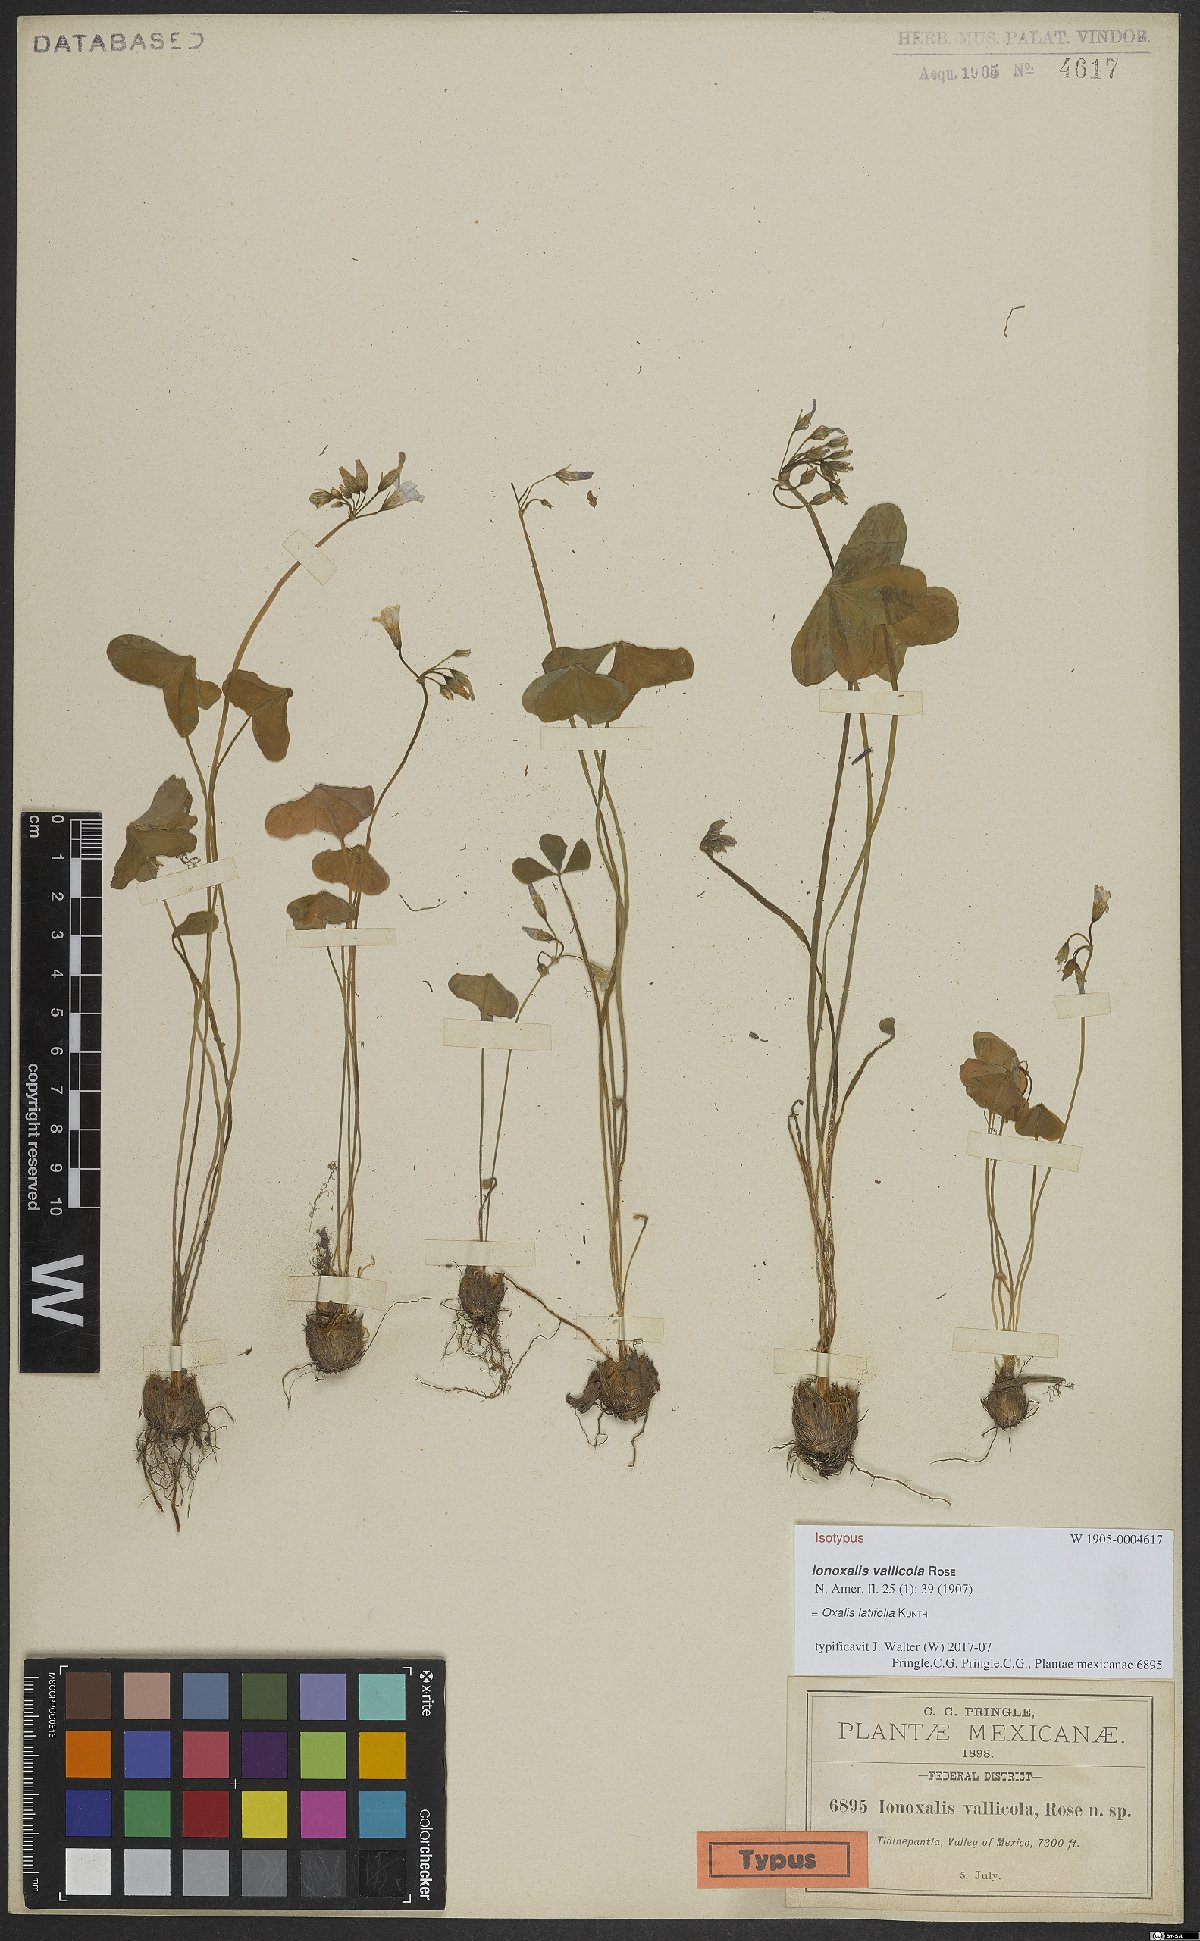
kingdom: Plantae
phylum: Tracheophyta
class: Magnoliopsida
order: Oxalidales
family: Oxalidaceae
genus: Oxalis
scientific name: Oxalis latifolia
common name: Garden pink-sorrel
